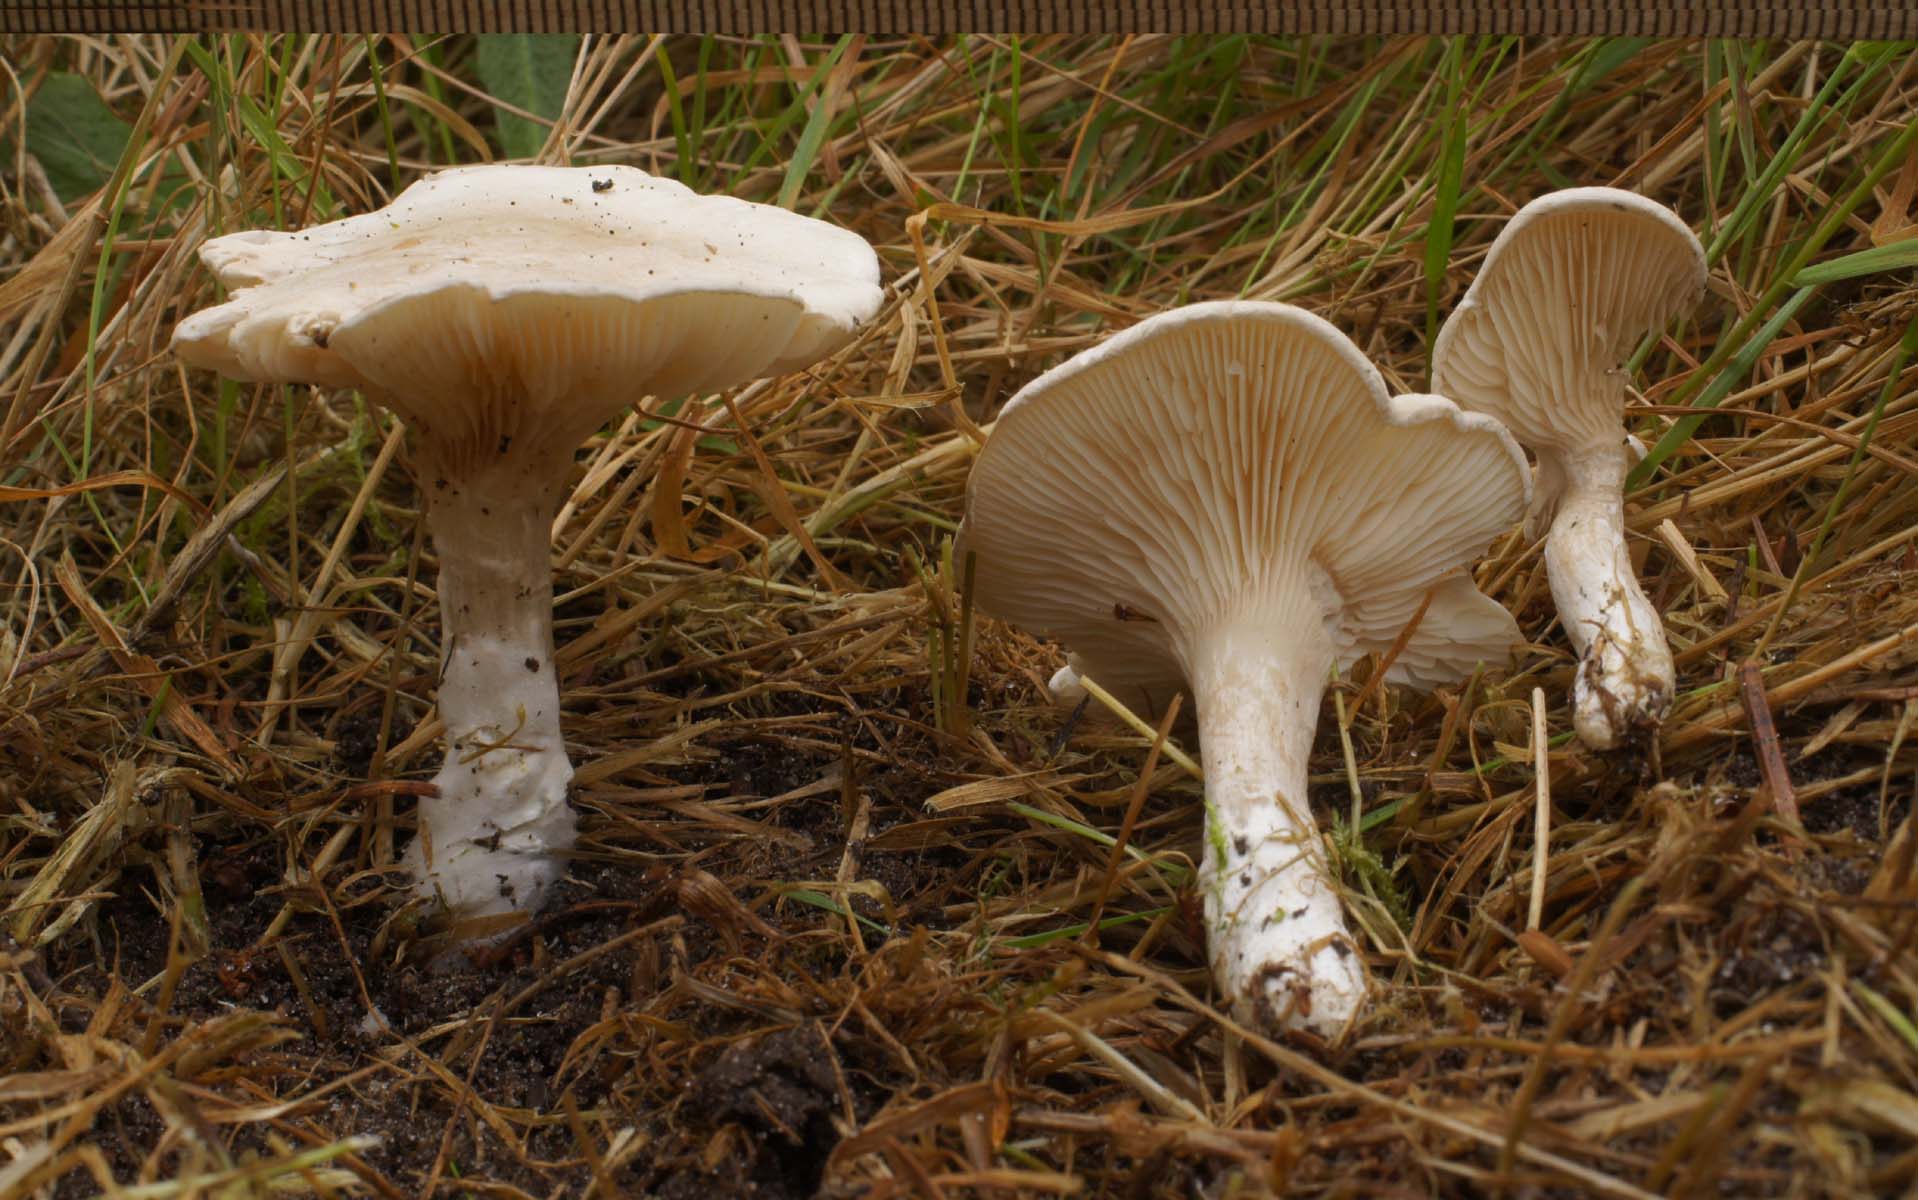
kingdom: Fungi
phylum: Basidiomycota
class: Agaricomycetes
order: Agaricales
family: Entolomataceae
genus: Clitopilus
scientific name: Clitopilus prunulus
